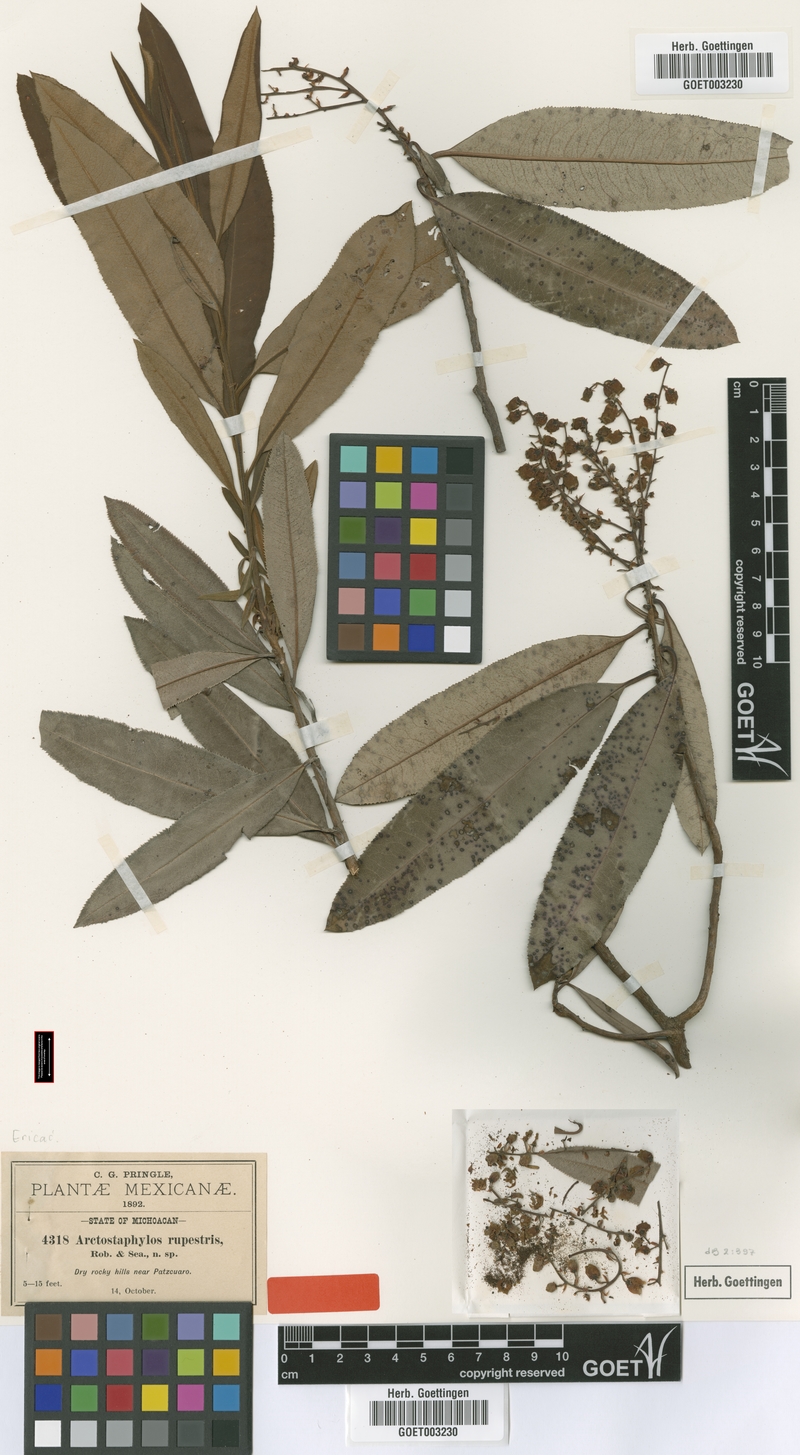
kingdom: Plantae
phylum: Tracheophyta
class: Magnoliopsida
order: Ericales
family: Ericaceae
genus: Comarostaphylis
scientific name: Comarostaphylis discolor
